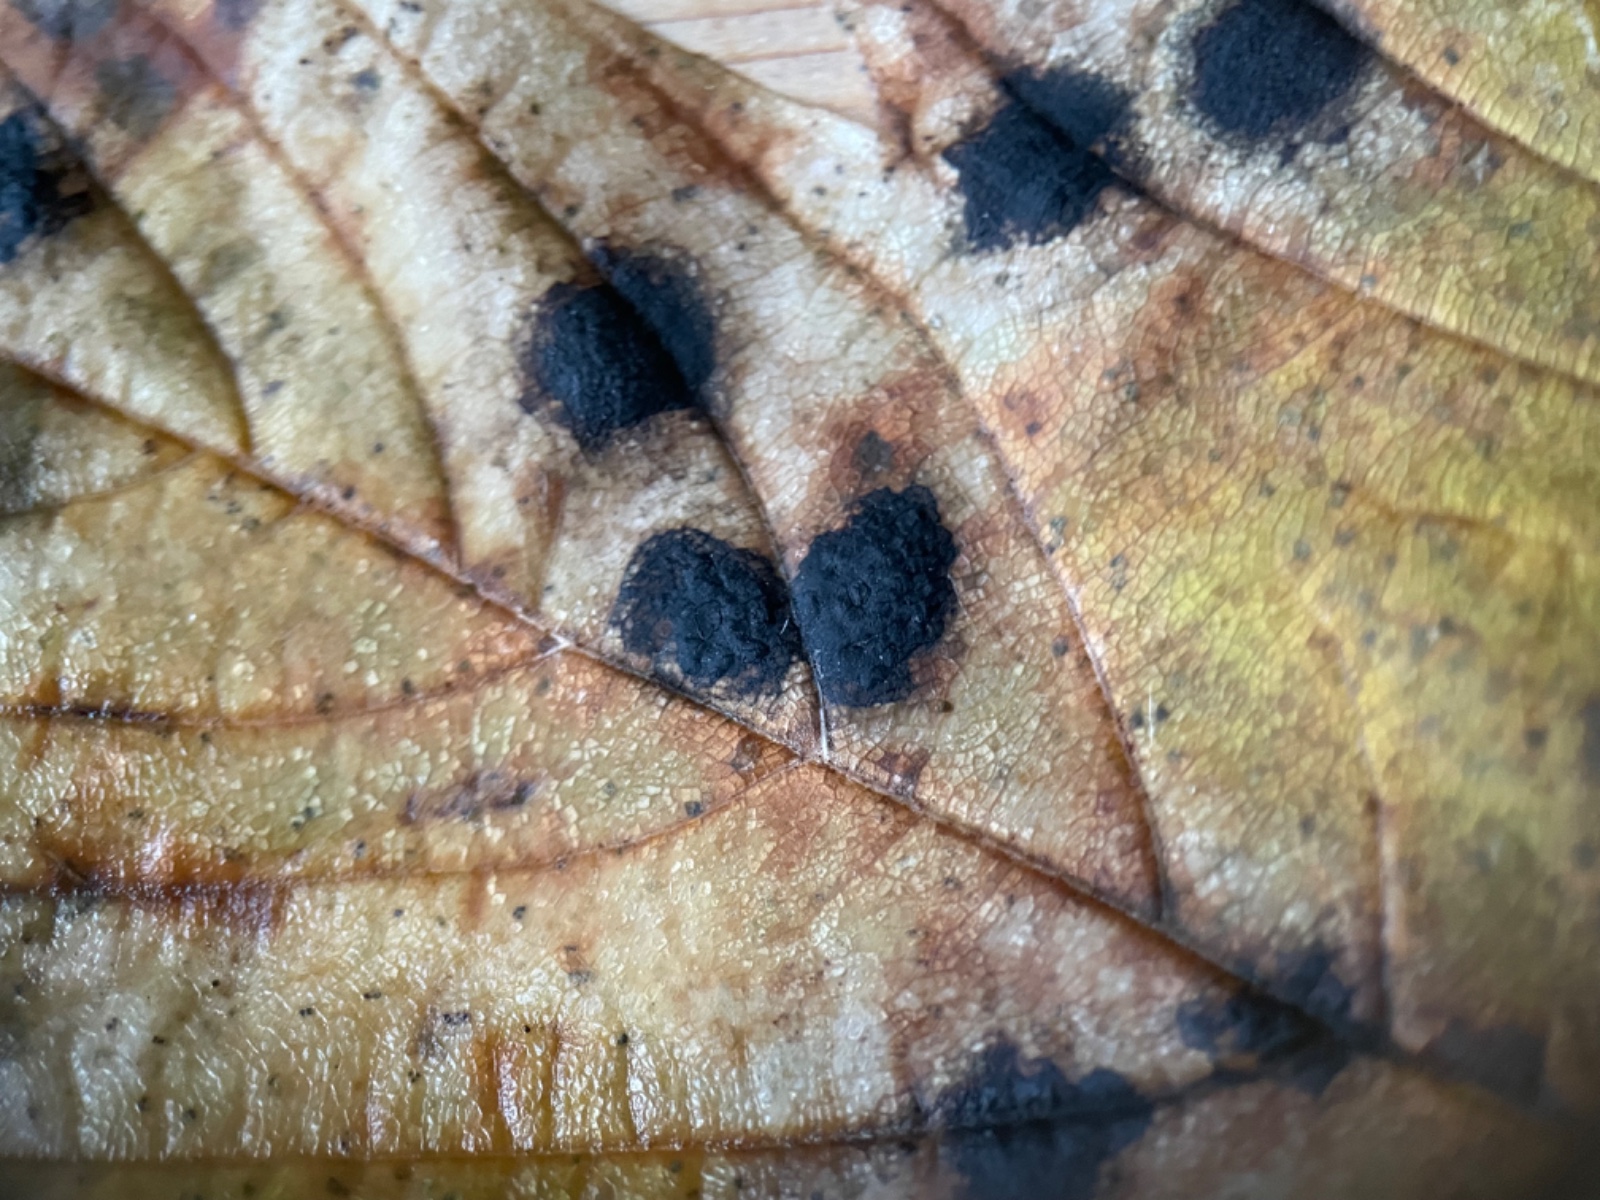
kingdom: Fungi
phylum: Ascomycota
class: Leotiomycetes
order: Rhytismatales
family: Rhytismataceae
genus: Rhytisma
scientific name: Rhytisma acerinum
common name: ahorn-rynkeplet
